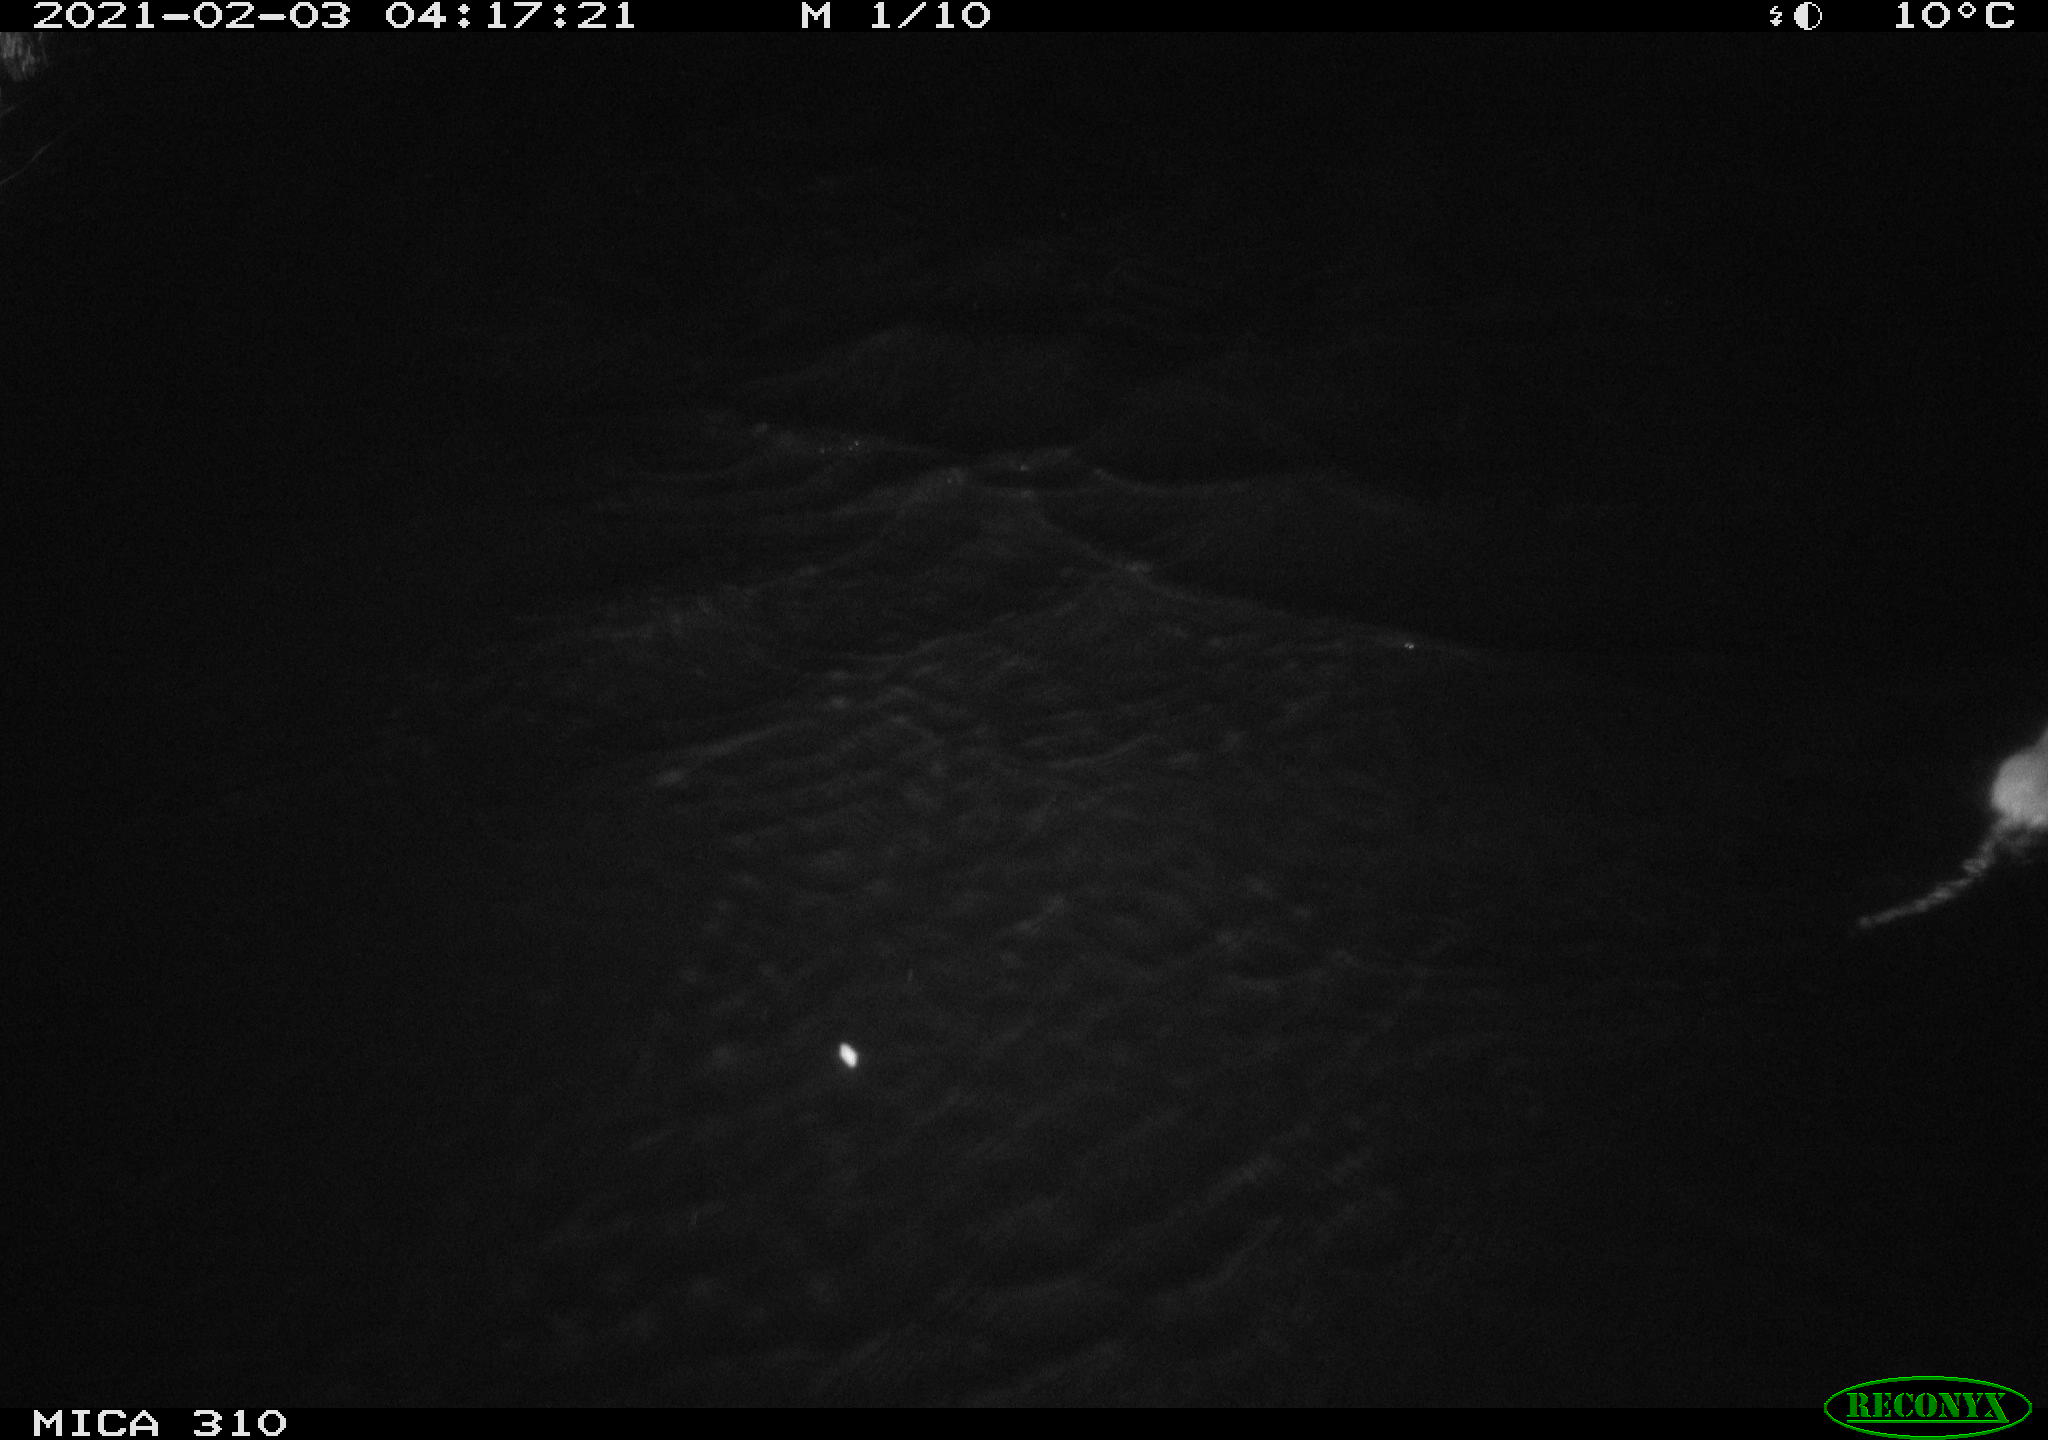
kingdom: Animalia
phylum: Chordata
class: Mammalia
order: Rodentia
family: Muridae
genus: Rattus
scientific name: Rattus norvegicus
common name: Brown rat
